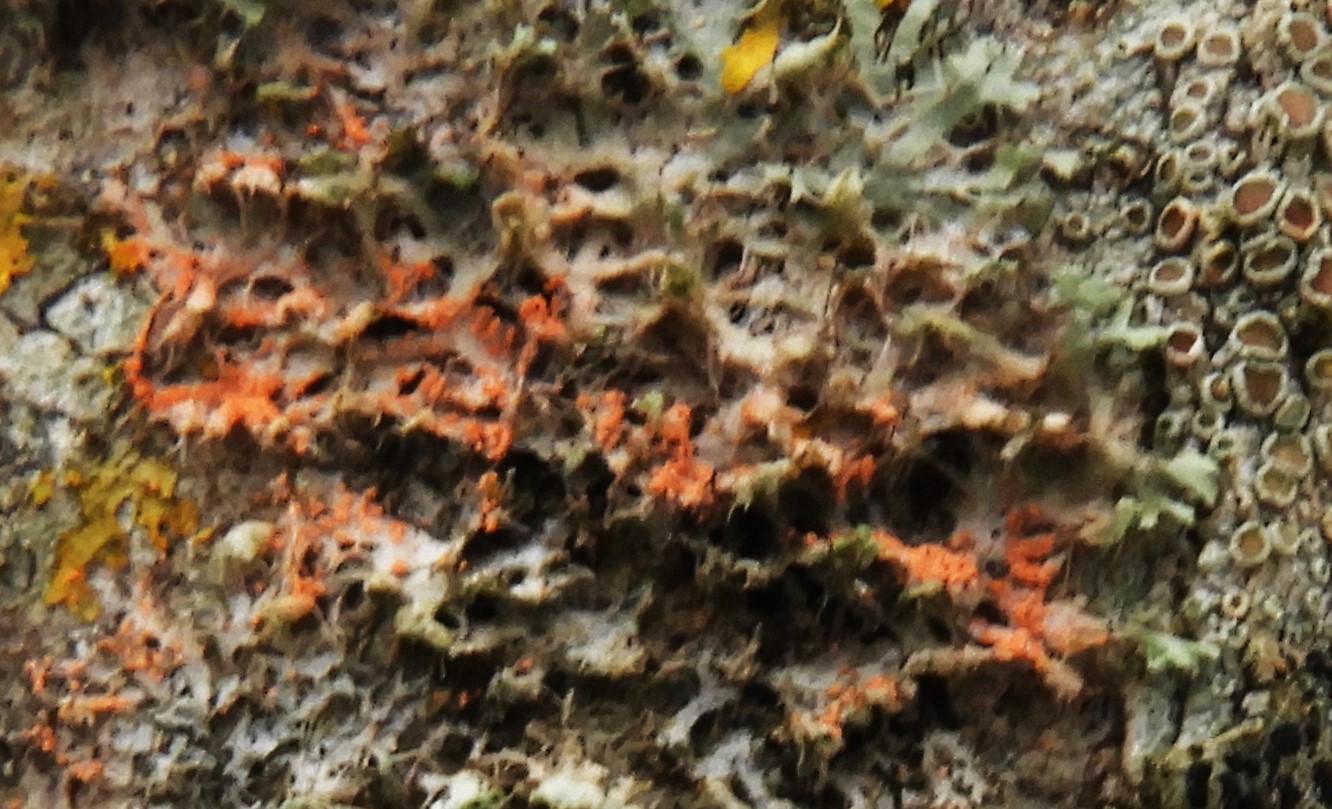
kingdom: Fungi
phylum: Basidiomycota
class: Agaricomycetes
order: Corticiales
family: Corticiaceae
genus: Erythricium
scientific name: Erythricium aurantiacum
